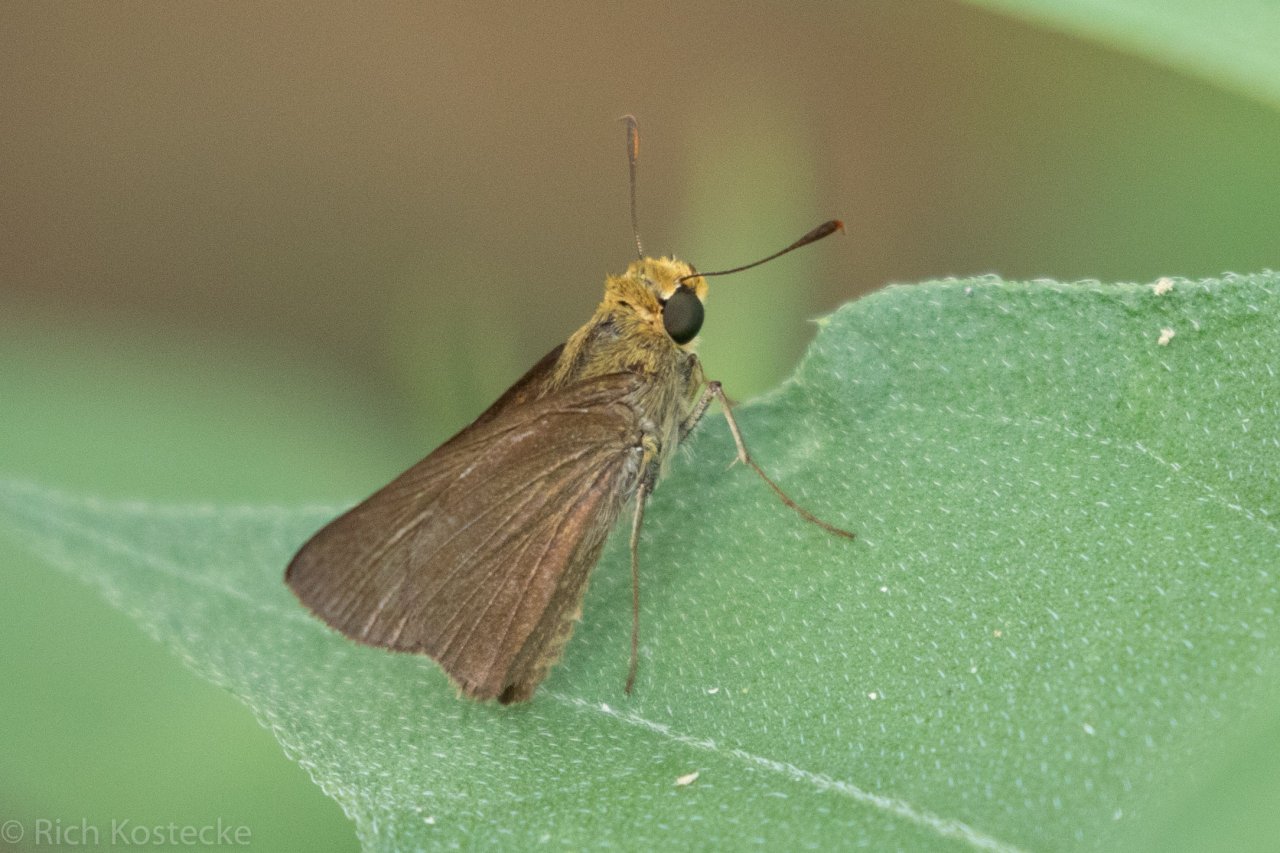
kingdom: Animalia
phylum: Arthropoda
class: Insecta
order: Lepidoptera
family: Hesperiidae
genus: Euphyes
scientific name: Euphyes vestris
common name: Dun Skipper
